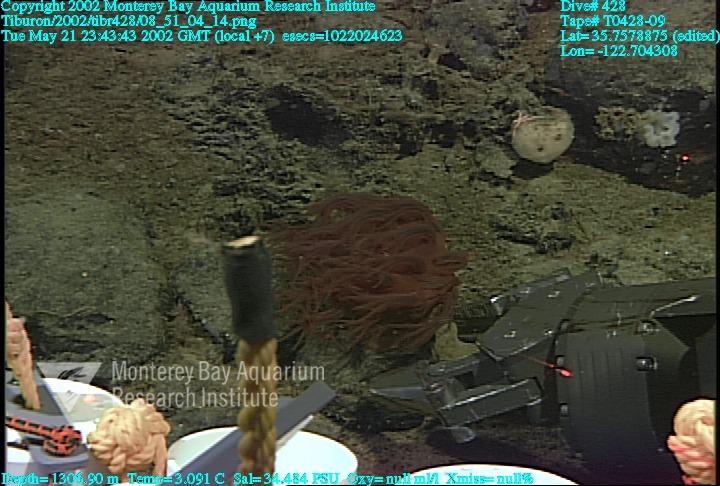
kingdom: Animalia
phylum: Porifera
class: Hexactinellida
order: Sceptrulophora
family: Aphrocallistidae
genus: Heterochone
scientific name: Heterochone calyx
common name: Fingered goblet glass sponge
